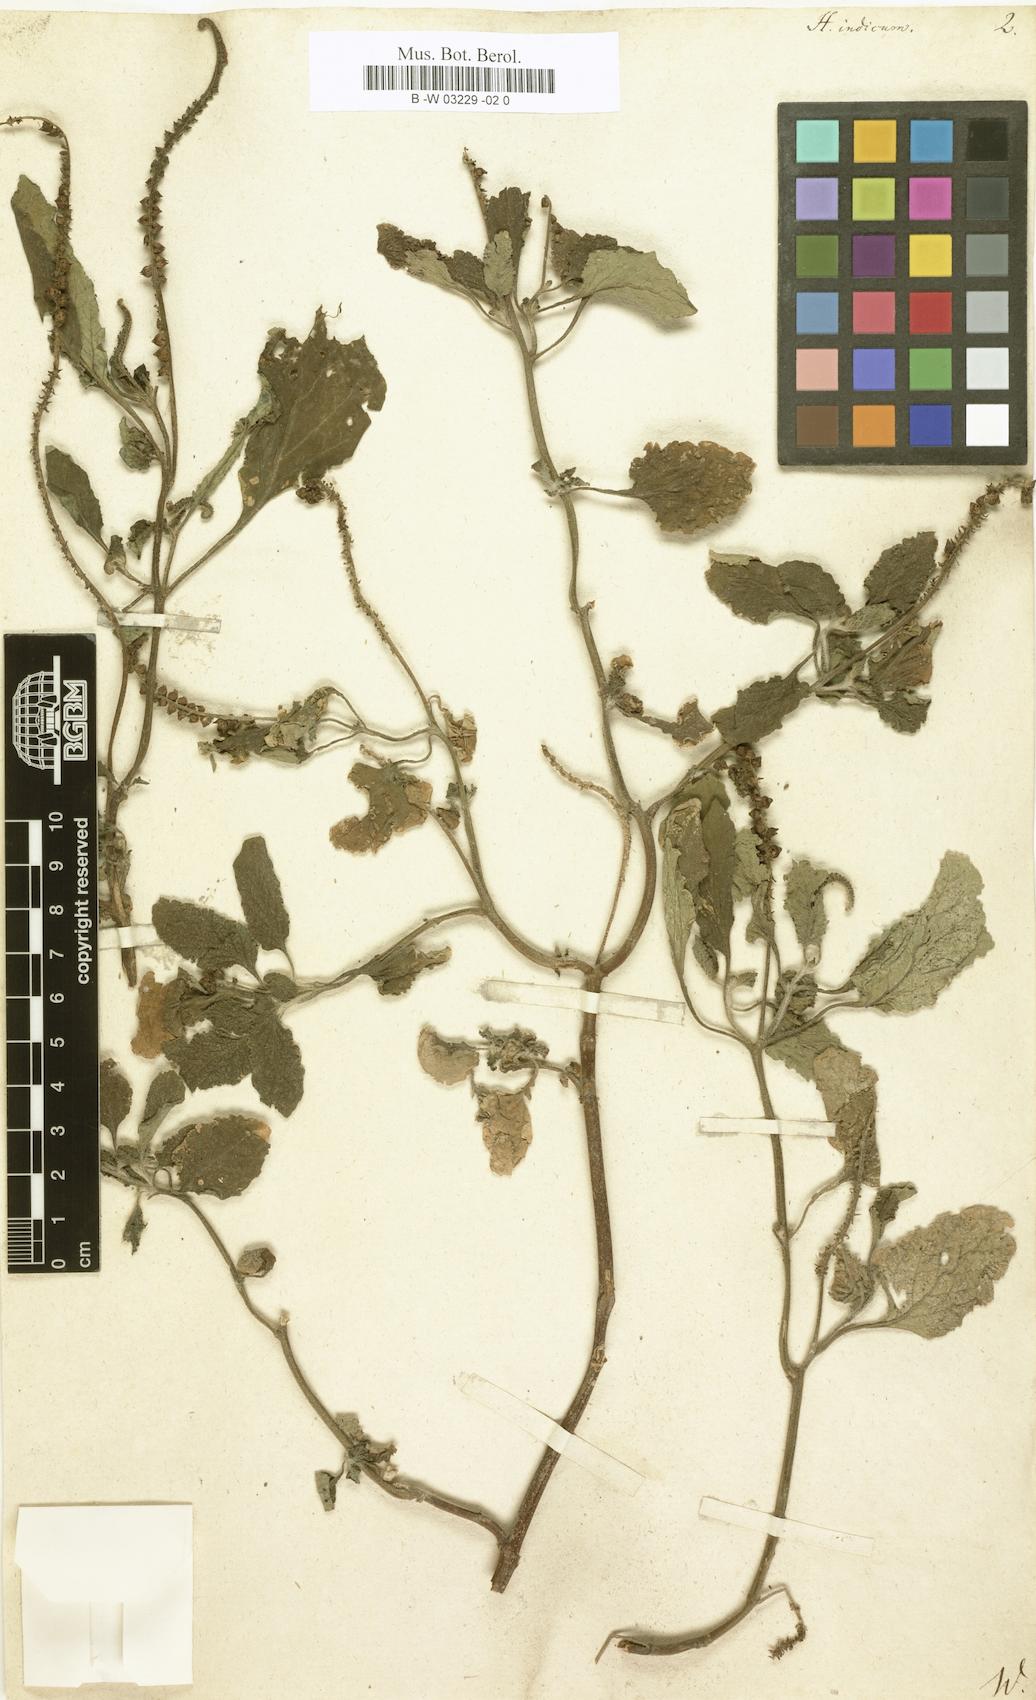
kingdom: Plantae
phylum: Tracheophyta
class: Magnoliopsida
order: Boraginales
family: Heliotropiaceae
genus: Heliotropium
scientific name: Heliotropium indicum
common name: Indian heliotrope
